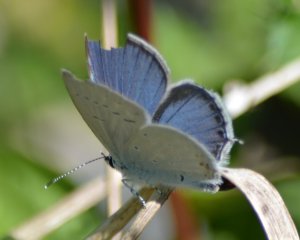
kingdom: Animalia
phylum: Arthropoda
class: Insecta
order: Lepidoptera
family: Lycaenidae
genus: Elkalyce
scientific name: Elkalyce amyntula
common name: Western Tailed-Blue
